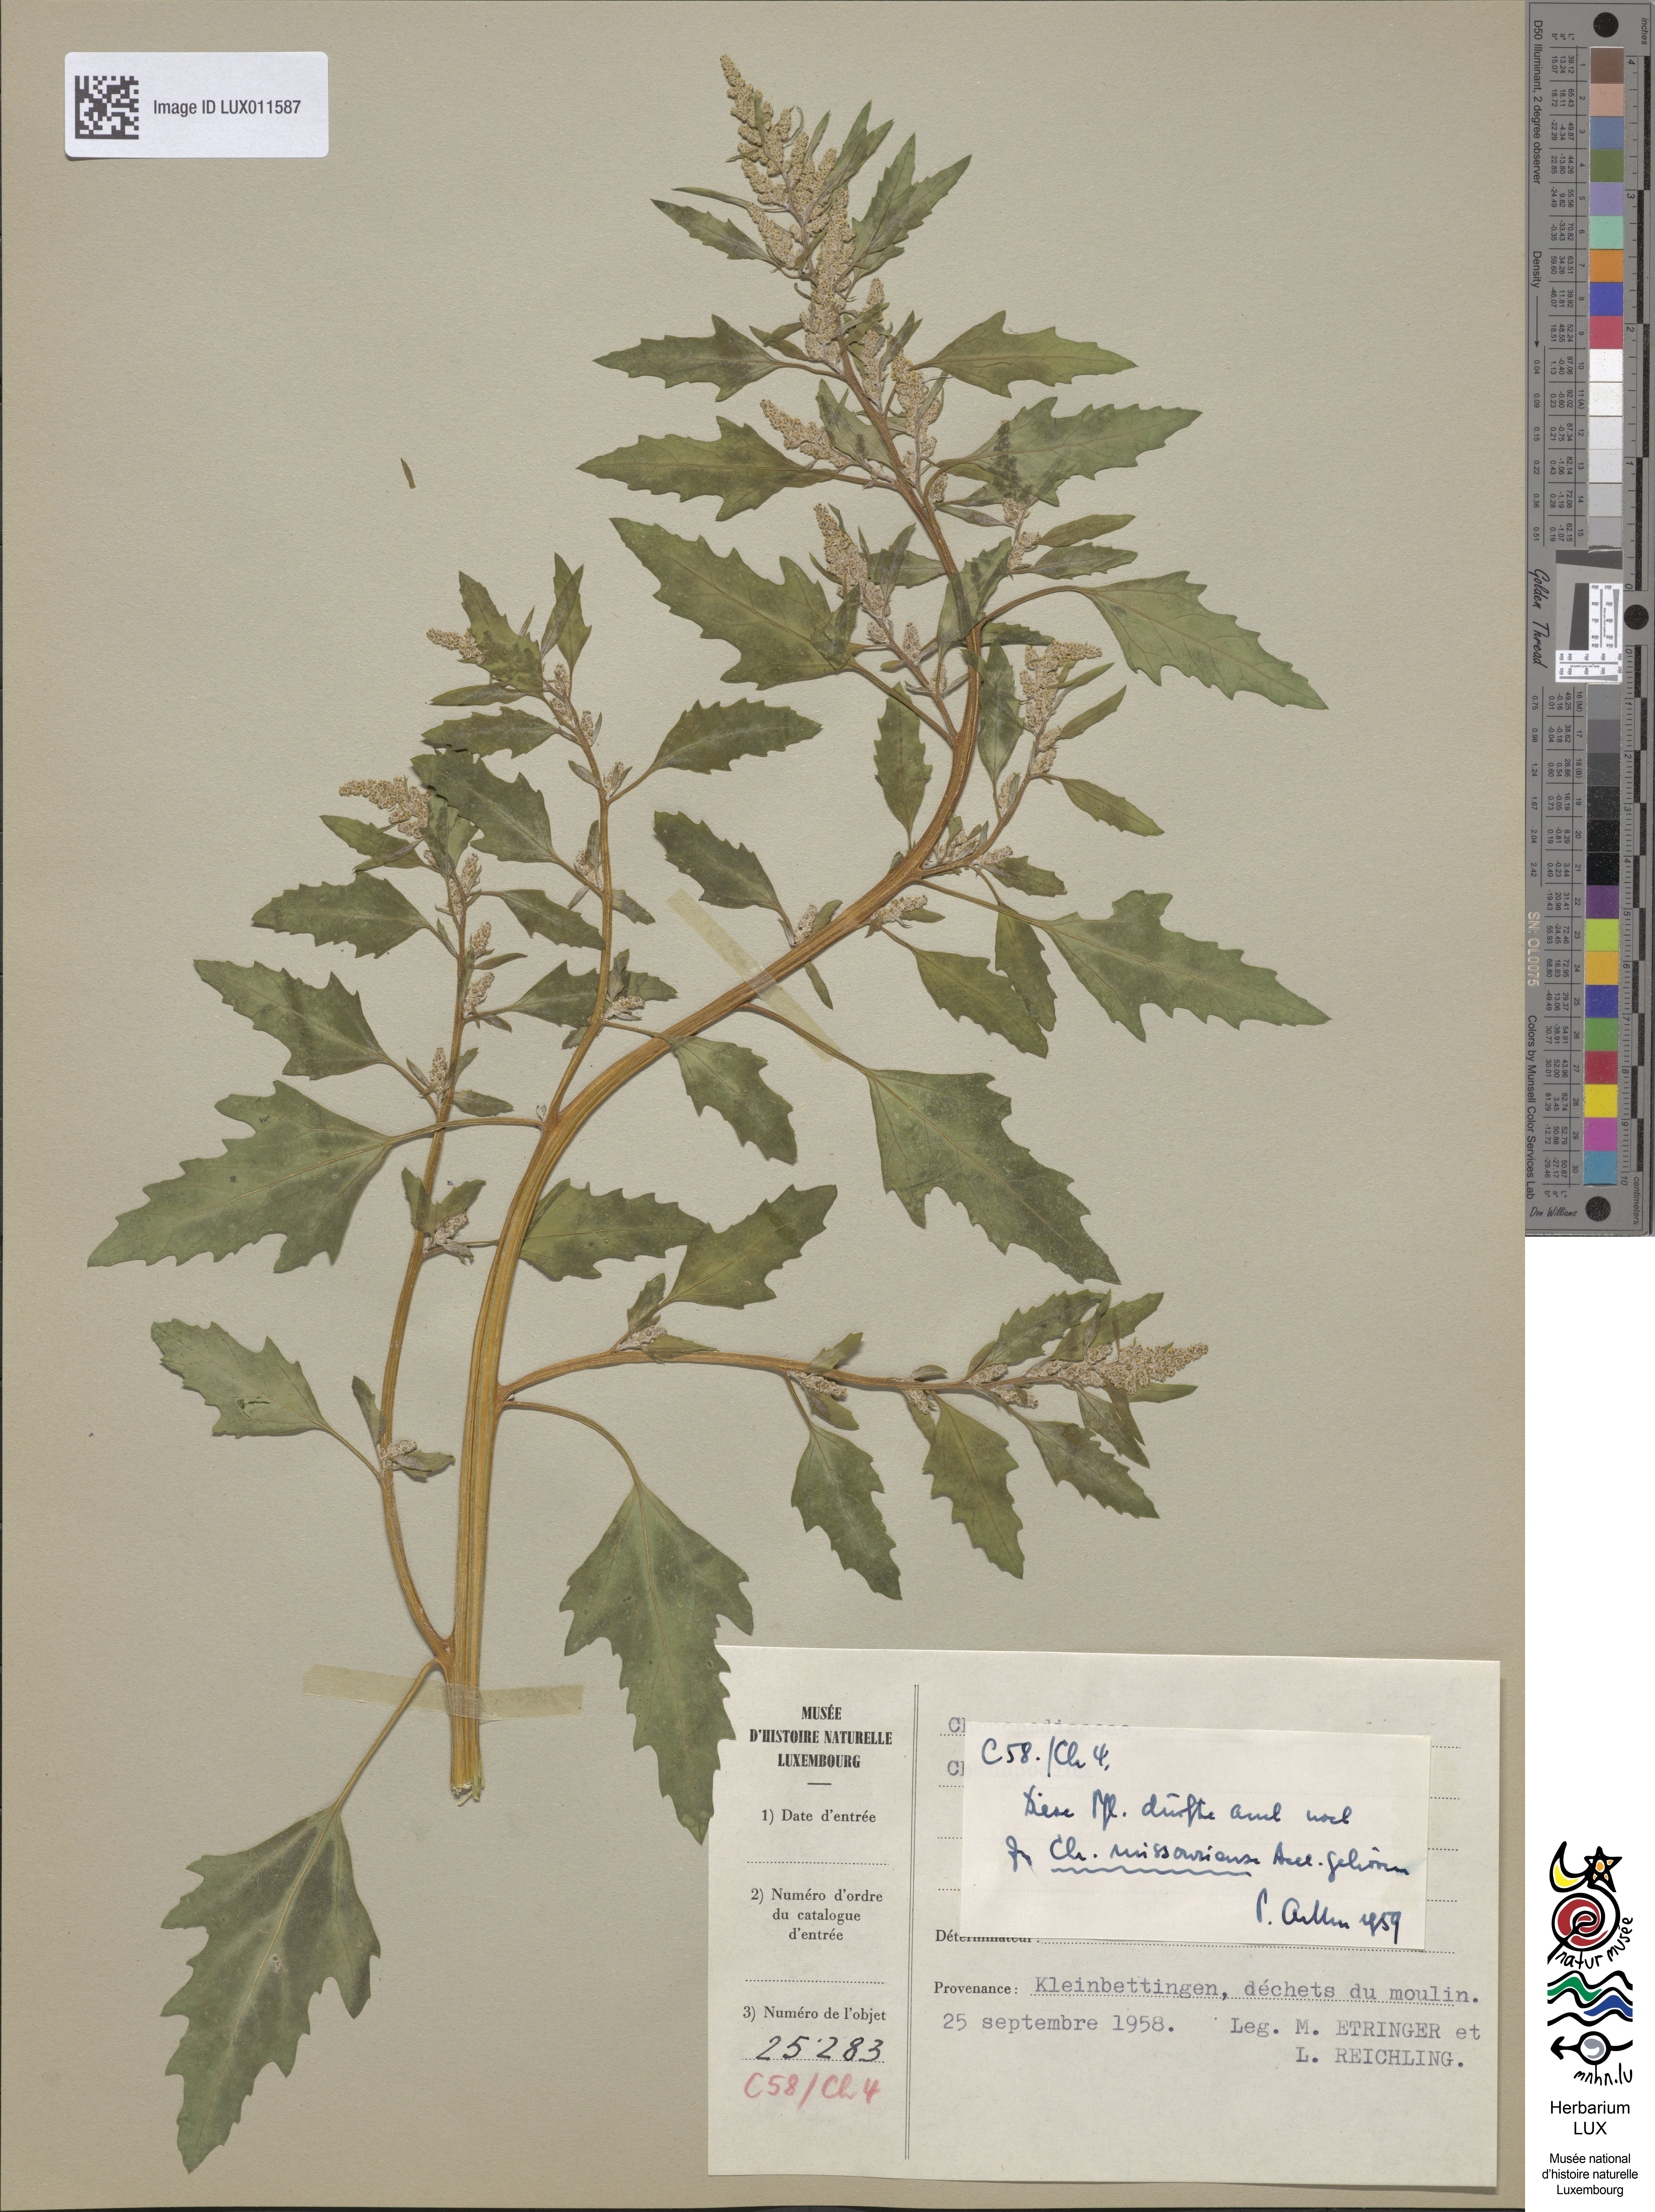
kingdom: Plantae
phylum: Tracheophyta
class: Magnoliopsida
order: Caryophyllales
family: Amaranthaceae
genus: Chenopodium
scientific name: Chenopodium album
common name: Fat-hen
